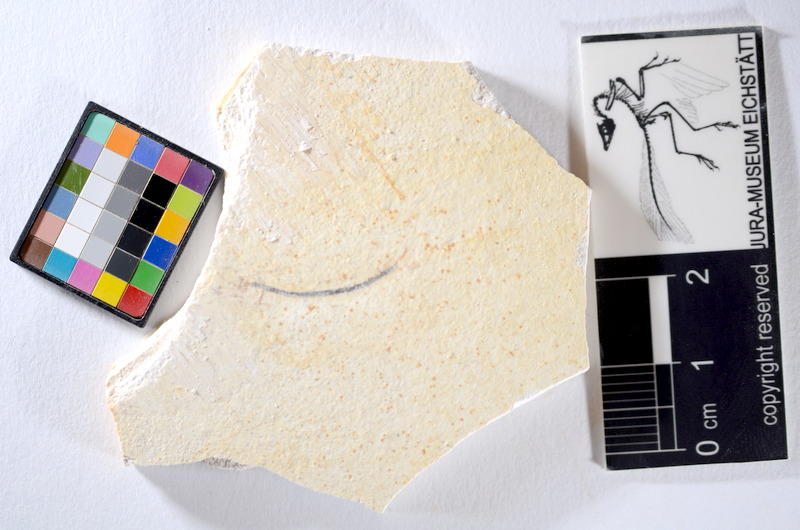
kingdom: Animalia
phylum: Chordata
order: Salmoniformes
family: Orthogonikleithridae
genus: Orthogonikleithrus
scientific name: Orthogonikleithrus hoelli
